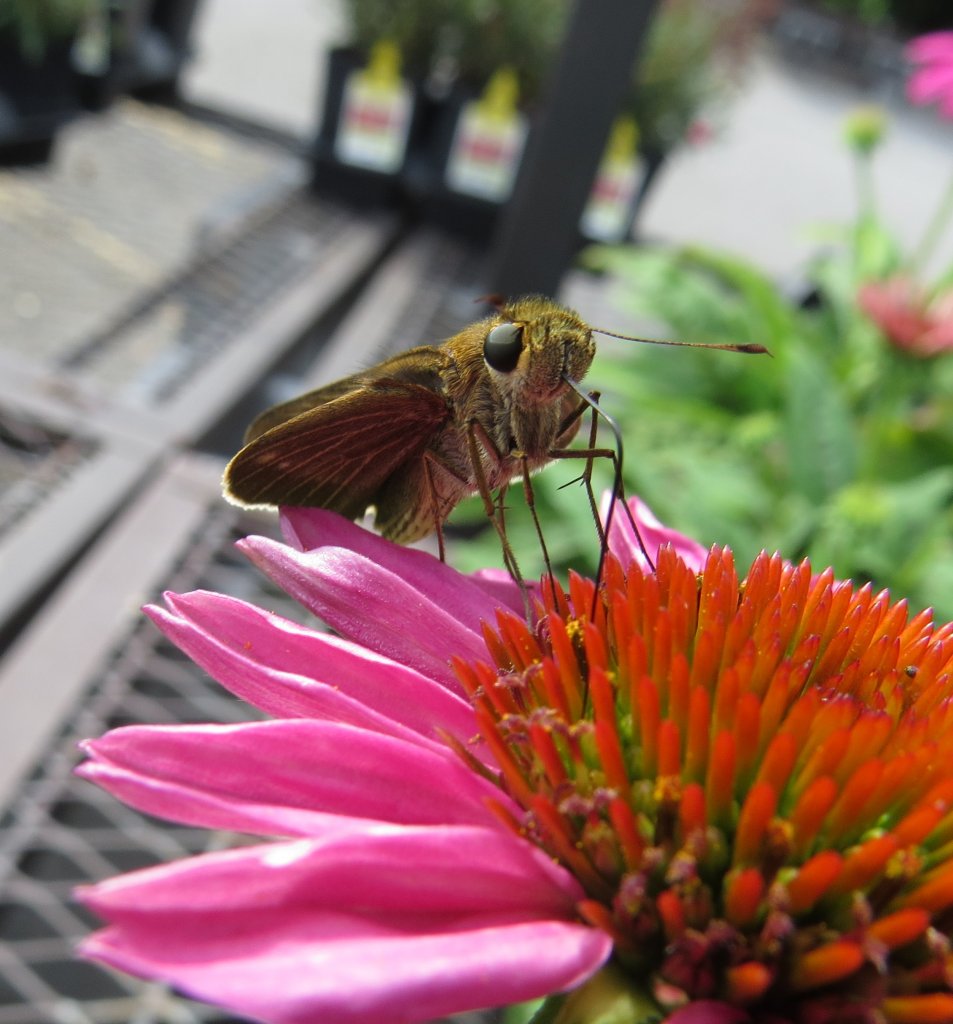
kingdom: Animalia
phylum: Arthropoda
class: Insecta
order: Lepidoptera
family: Hesperiidae
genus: Panoquina
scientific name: Panoquina ocola
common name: Ocola Skipper
